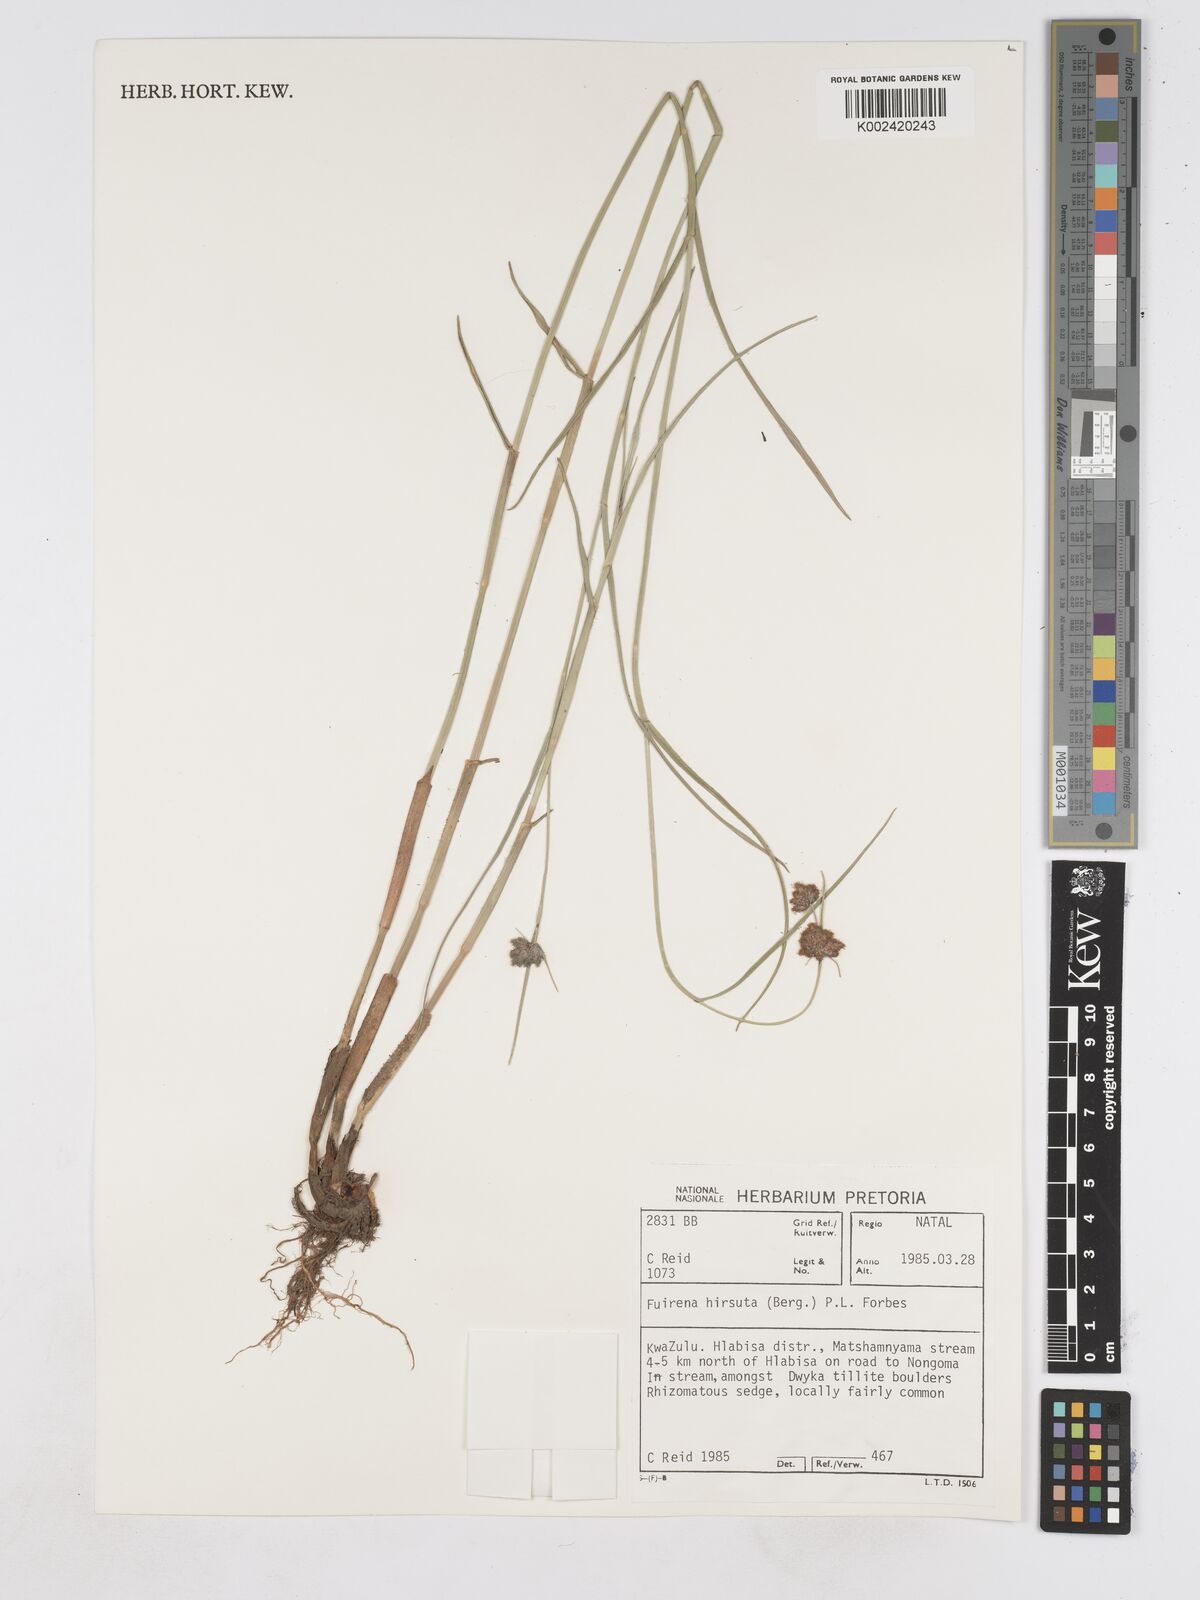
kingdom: Plantae
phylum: Tracheophyta
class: Liliopsida
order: Poales
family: Cyperaceae
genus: Fuirena
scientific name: Fuirena hirsuta
